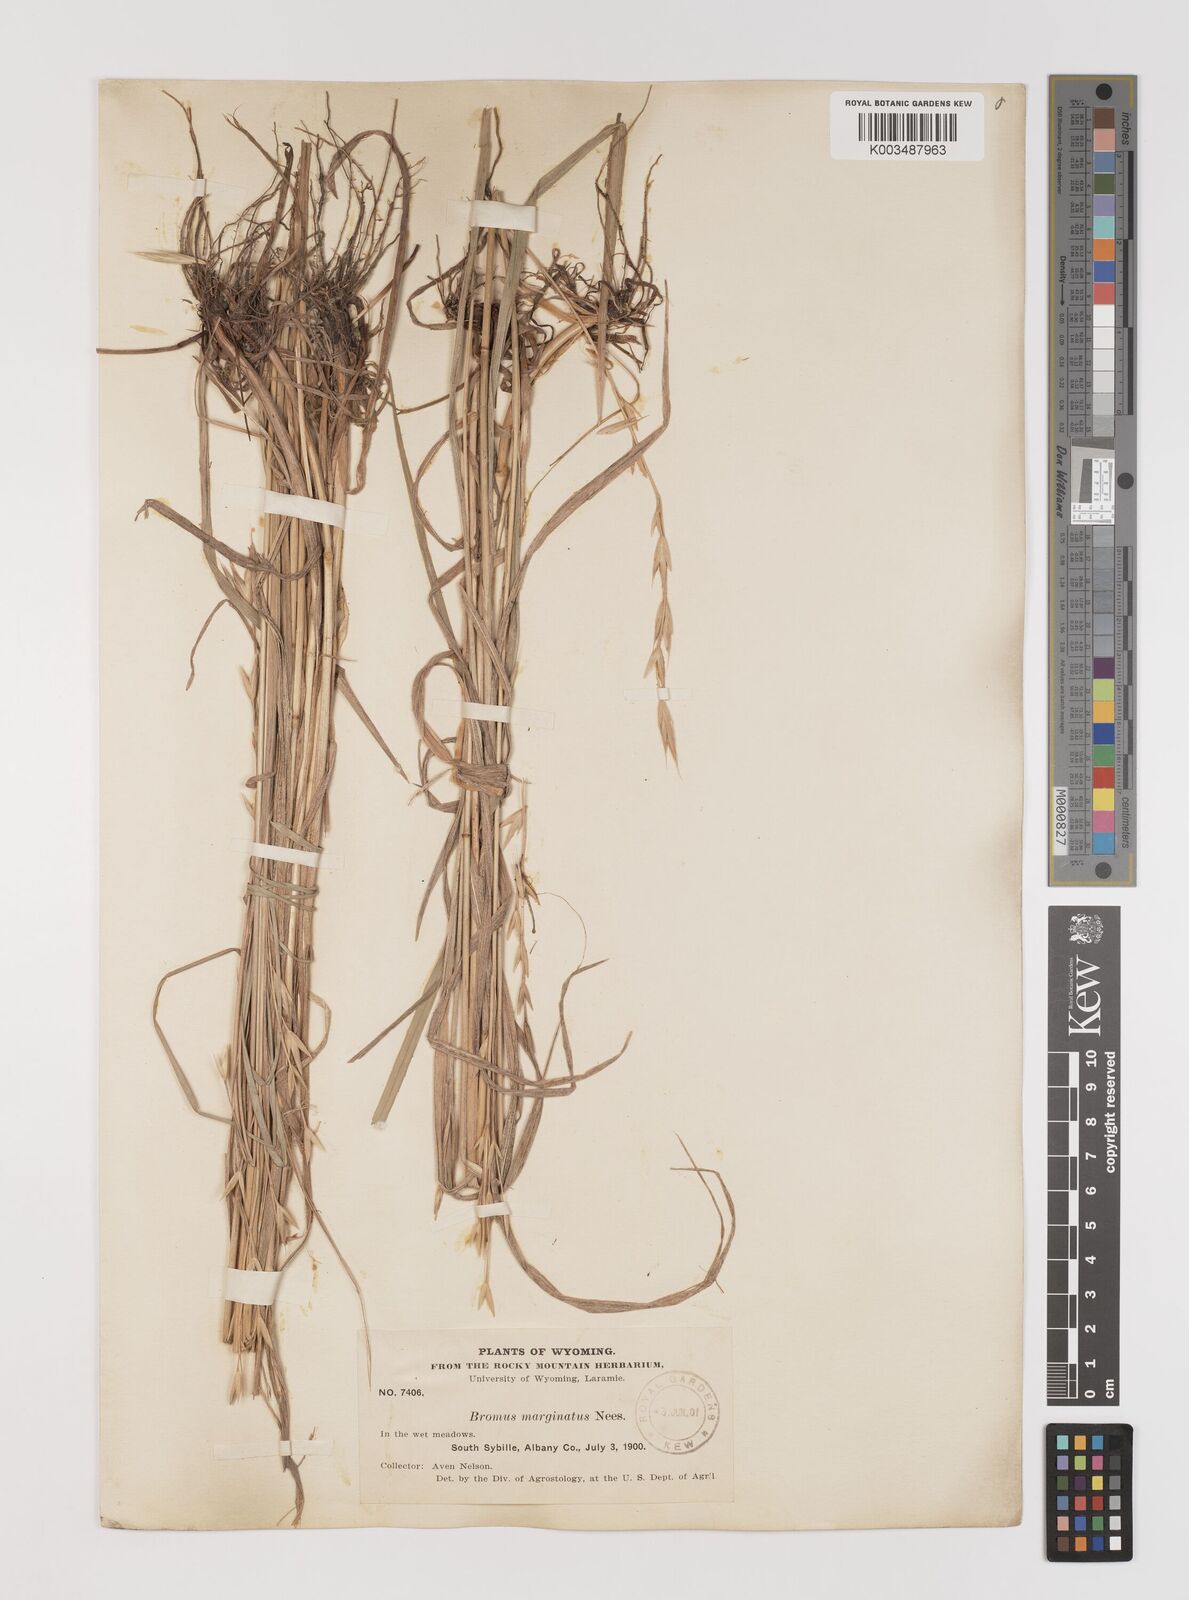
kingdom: Plantae
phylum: Tracheophyta
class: Liliopsida
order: Poales
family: Poaceae
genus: Bromus
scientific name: Bromus marginatus
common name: Western brome
